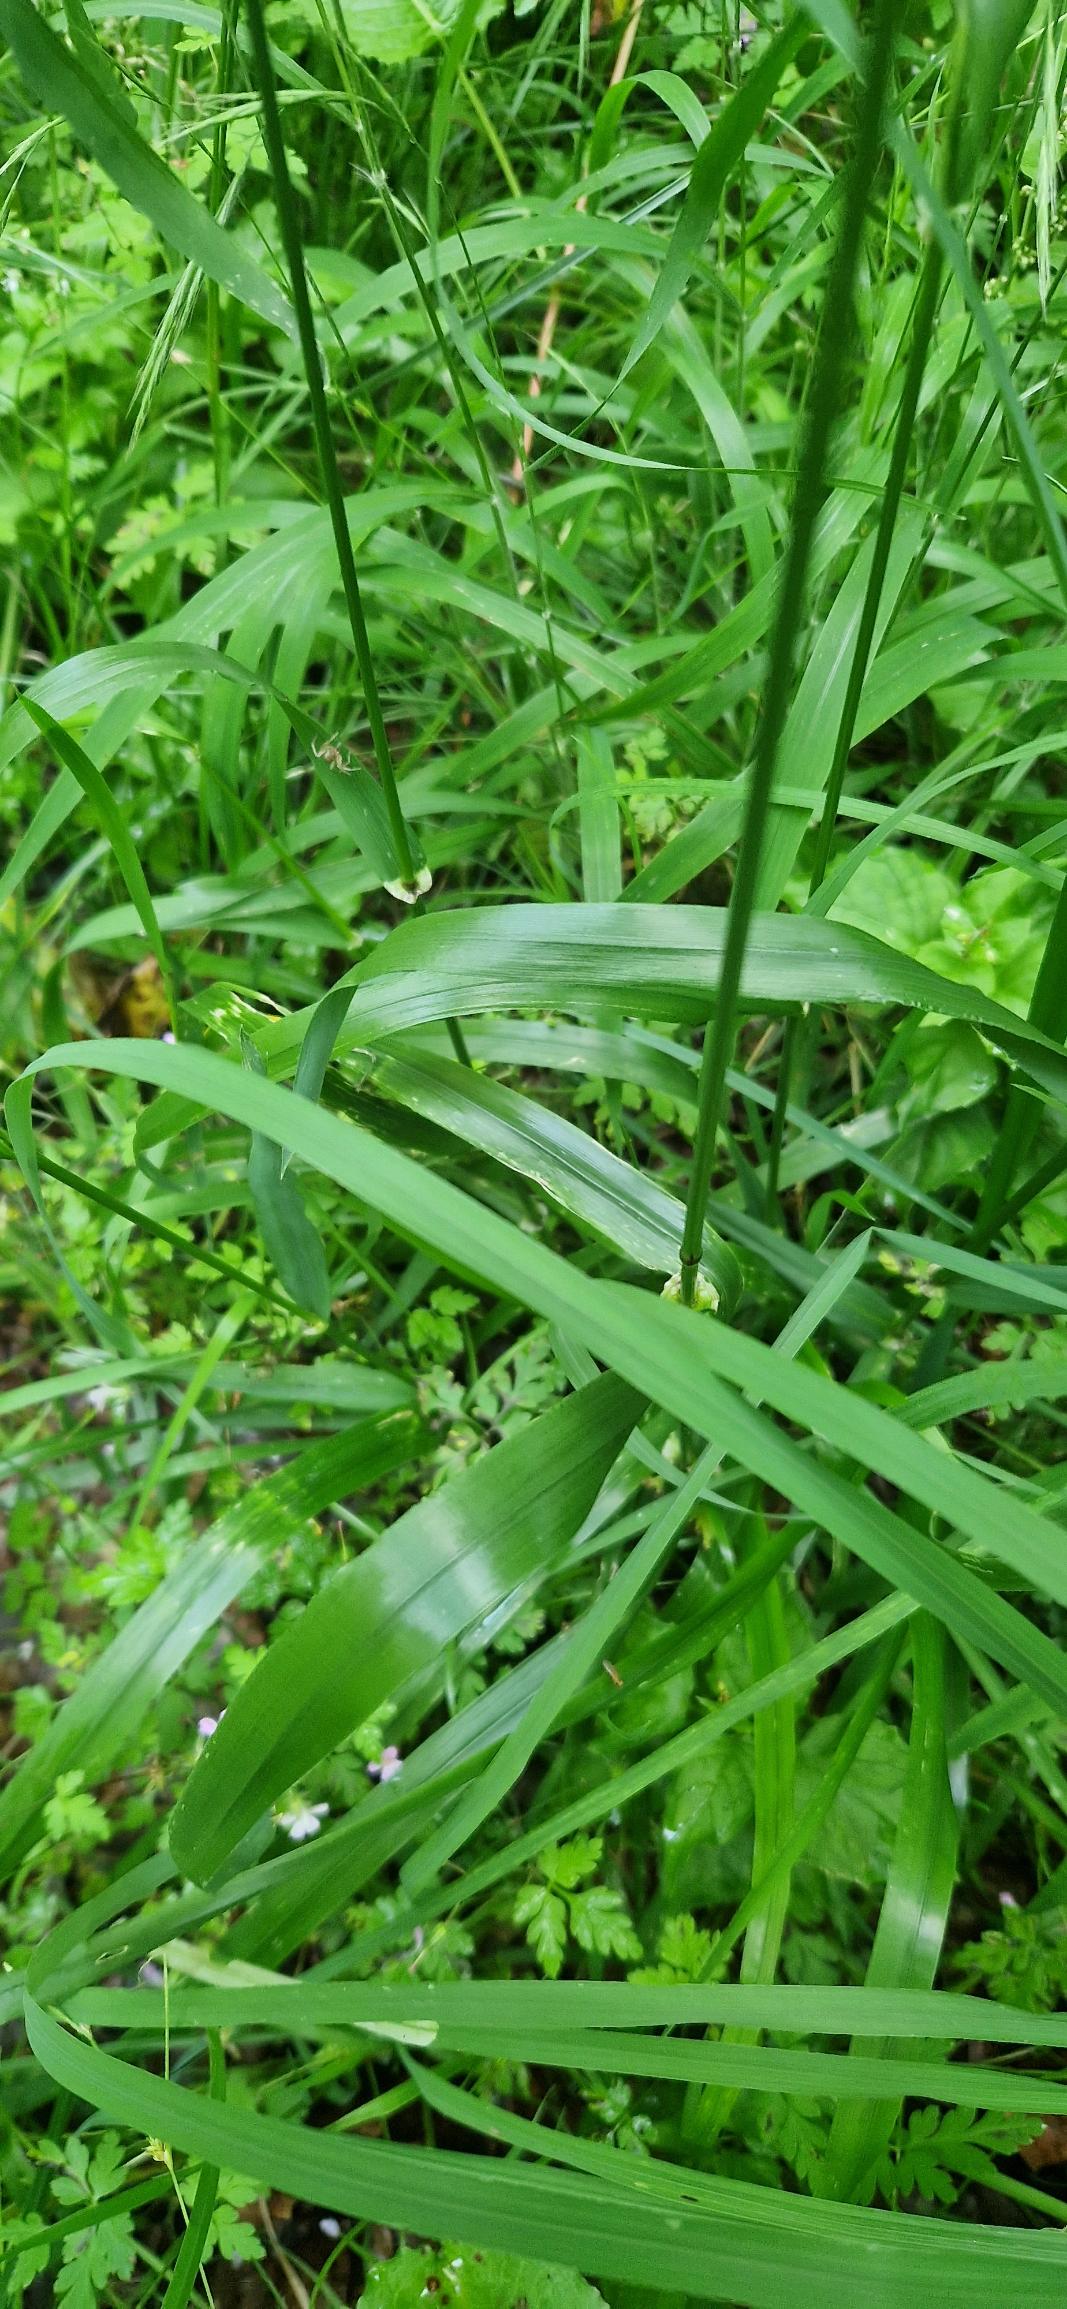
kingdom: Plantae
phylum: Tracheophyta
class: Liliopsida
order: Poales
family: Poaceae
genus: Lolium
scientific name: Lolium giganteum
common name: Kæmpe-svingel
